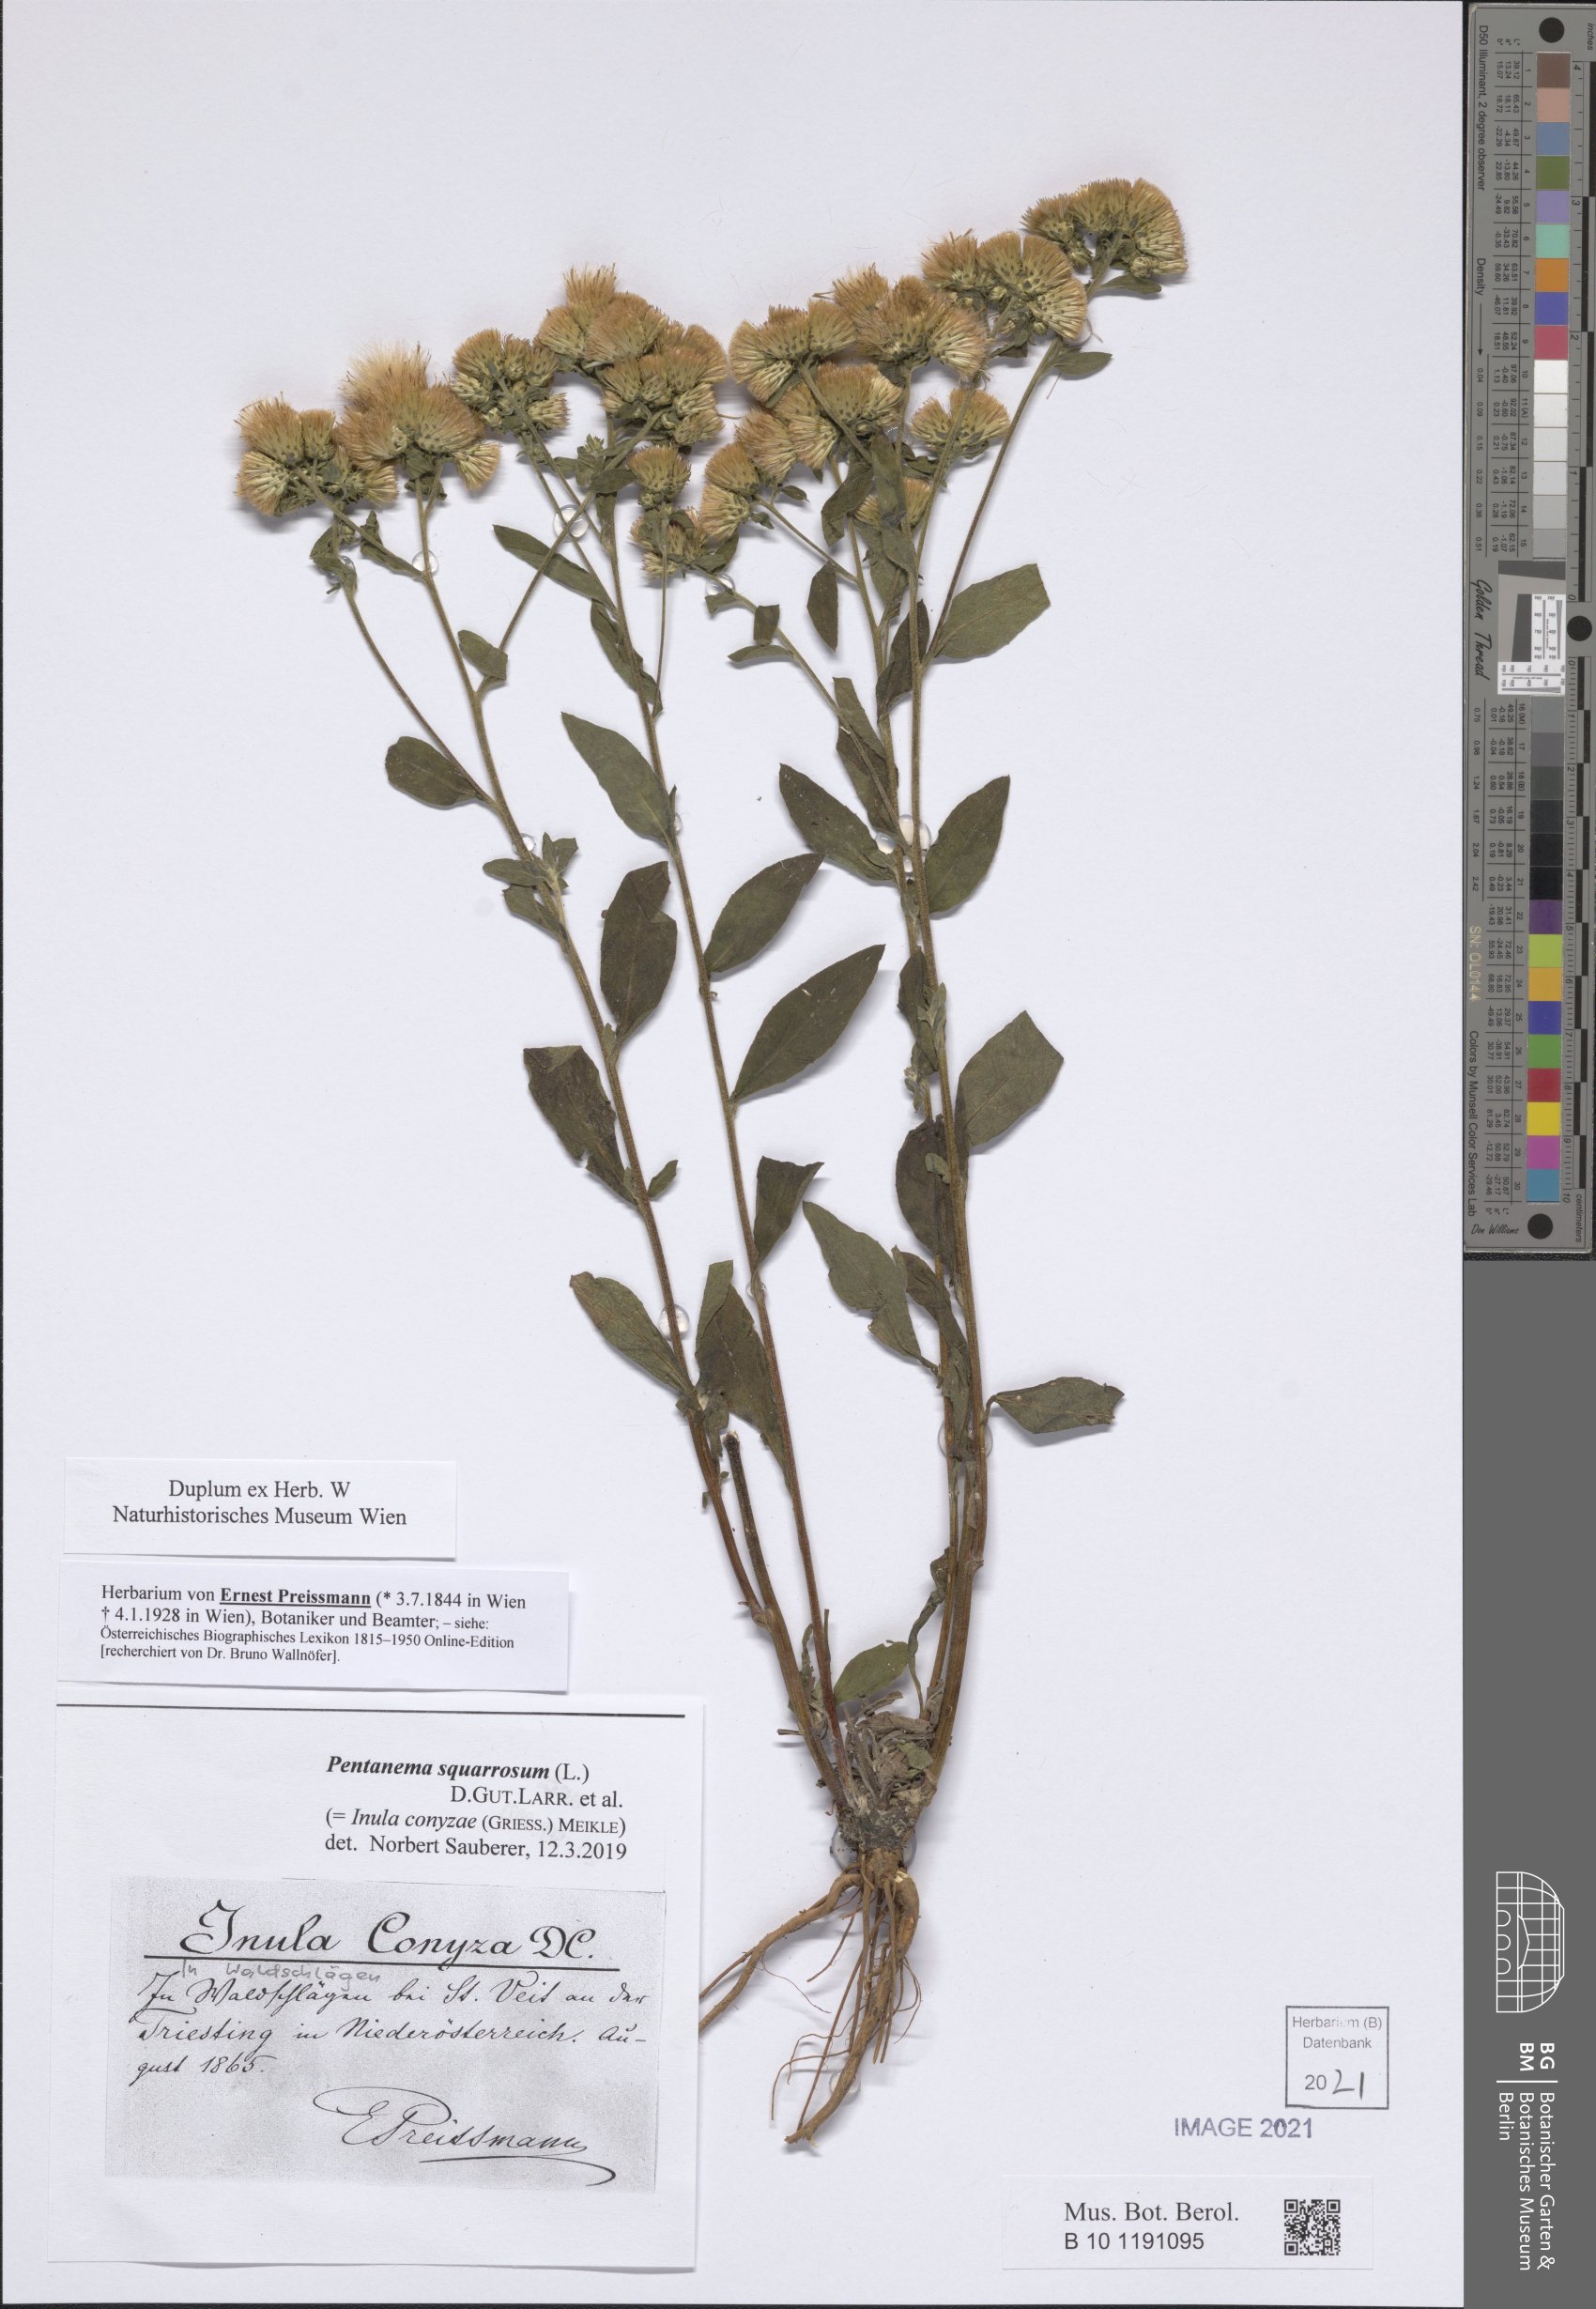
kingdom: Plantae
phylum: Tracheophyta
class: Magnoliopsida
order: Asterales
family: Asteraceae
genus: Pentanema
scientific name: Pentanema squarrosum
